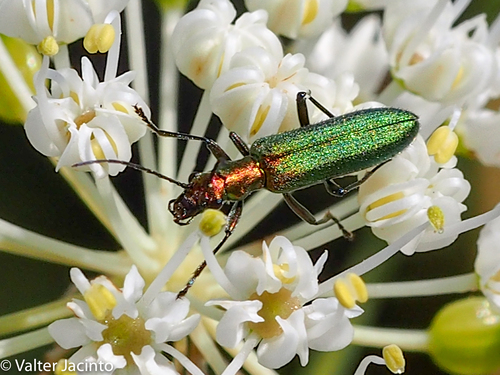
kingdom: Animalia
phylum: Arthropoda
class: Insecta
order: Coleoptera
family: Oedemeridae
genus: Chrysanthia
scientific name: Chrysanthia superba
